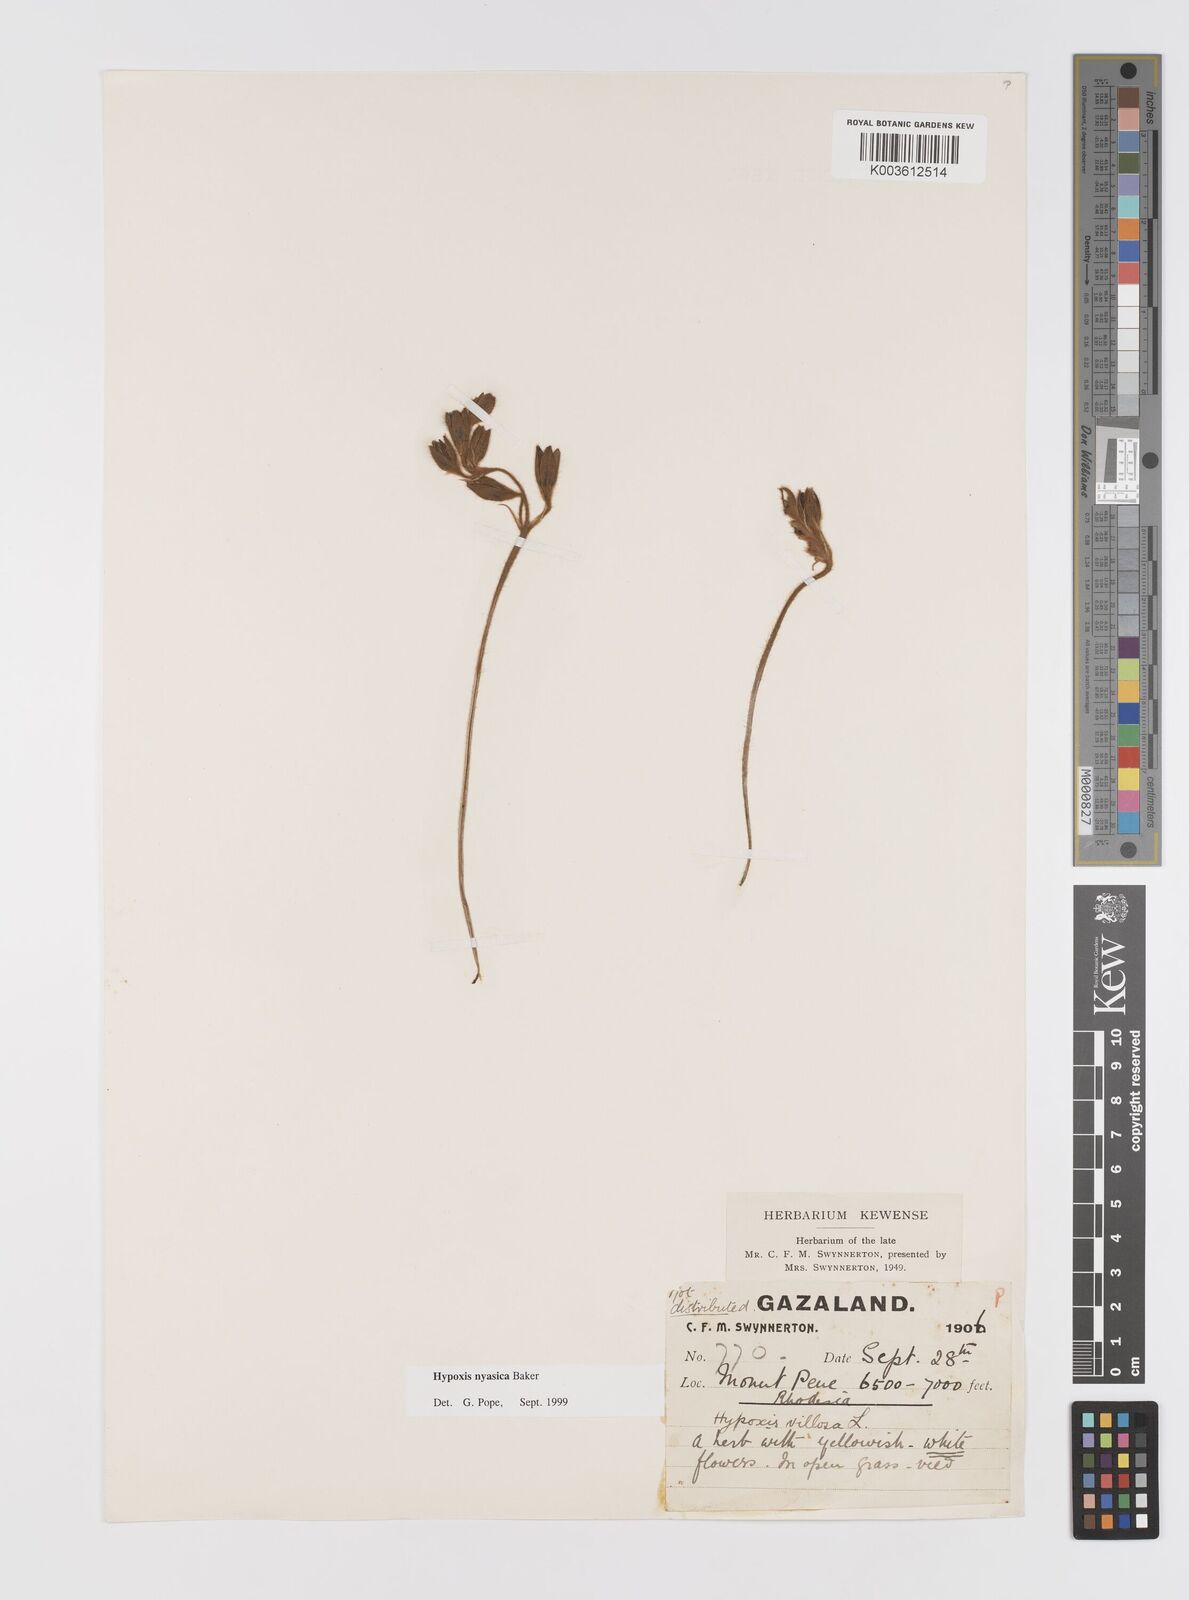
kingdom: Plantae
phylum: Tracheophyta
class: Liliopsida
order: Asparagales
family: Hypoxidaceae
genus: Hypoxis
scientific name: Hypoxis nyasica
